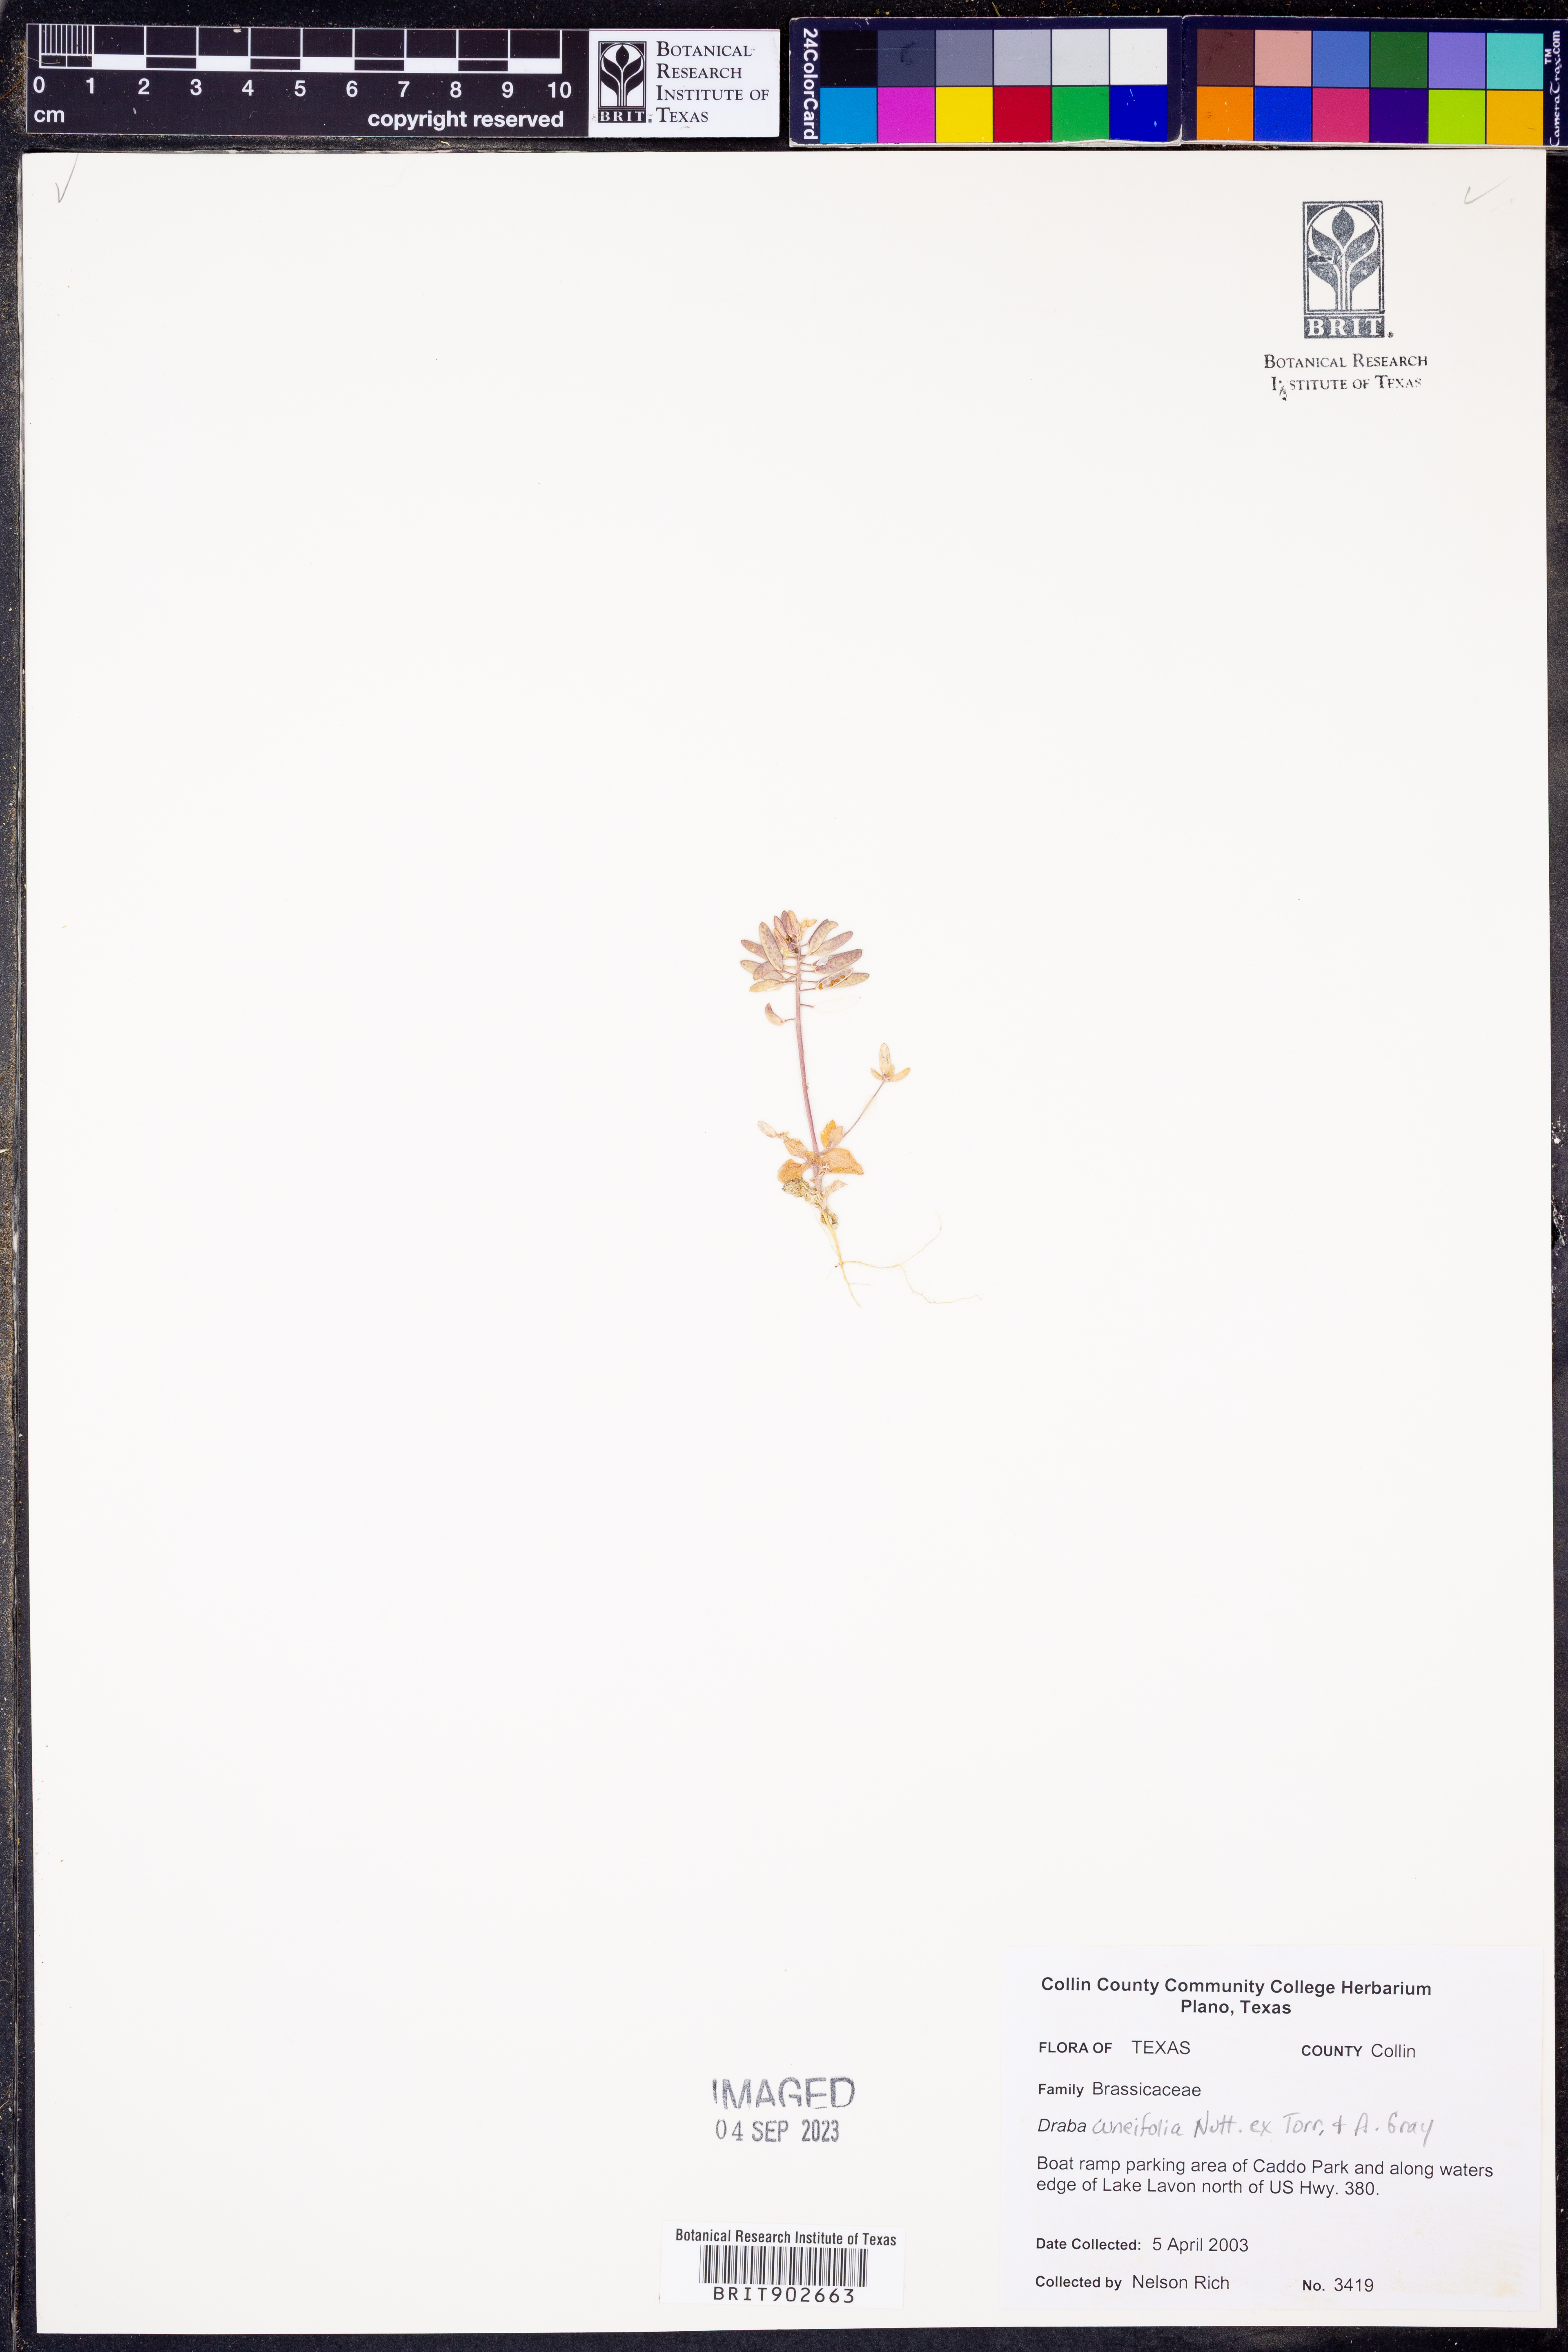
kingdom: Plantae
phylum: Tracheophyta
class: Magnoliopsida
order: Brassicales
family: Brassicaceae
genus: Tomostima
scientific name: Tomostima cuneifolia
